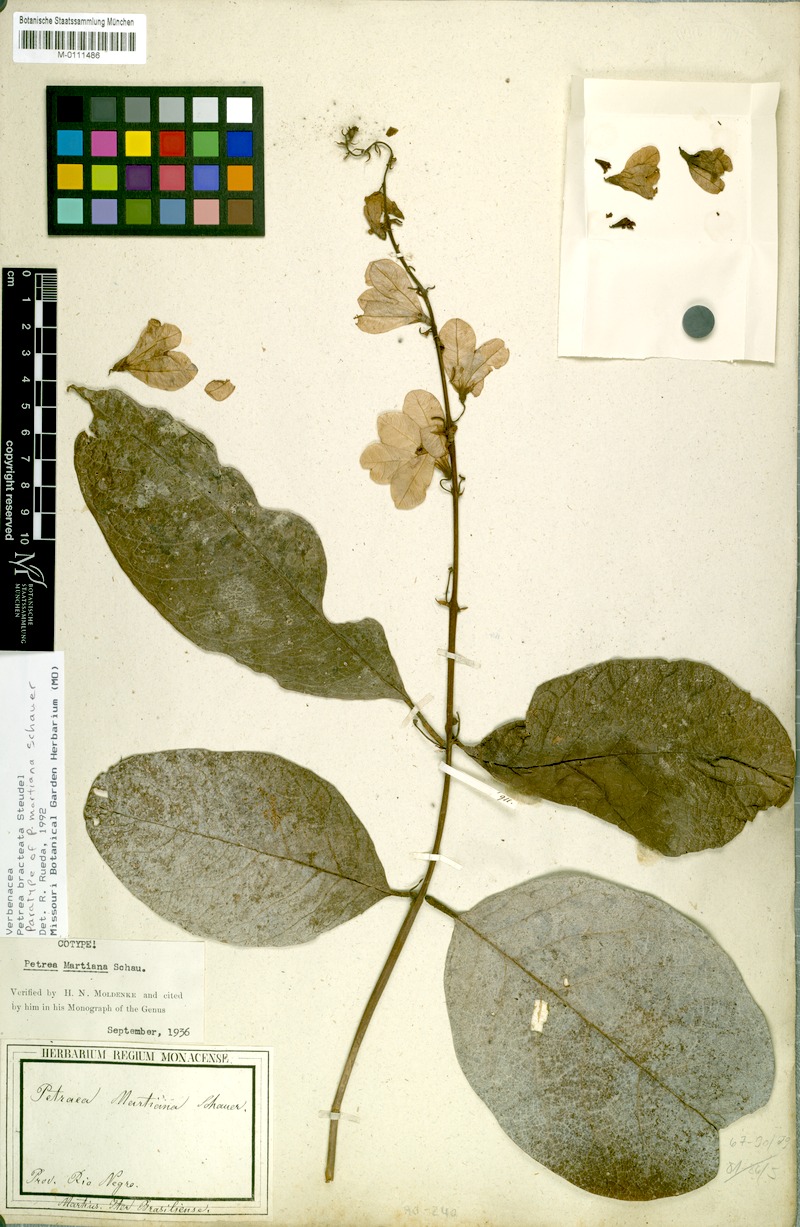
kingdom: Plantae
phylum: Tracheophyta
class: Magnoliopsida
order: Lamiales
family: Verbenaceae
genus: Petrea
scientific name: Petrea bracteata
